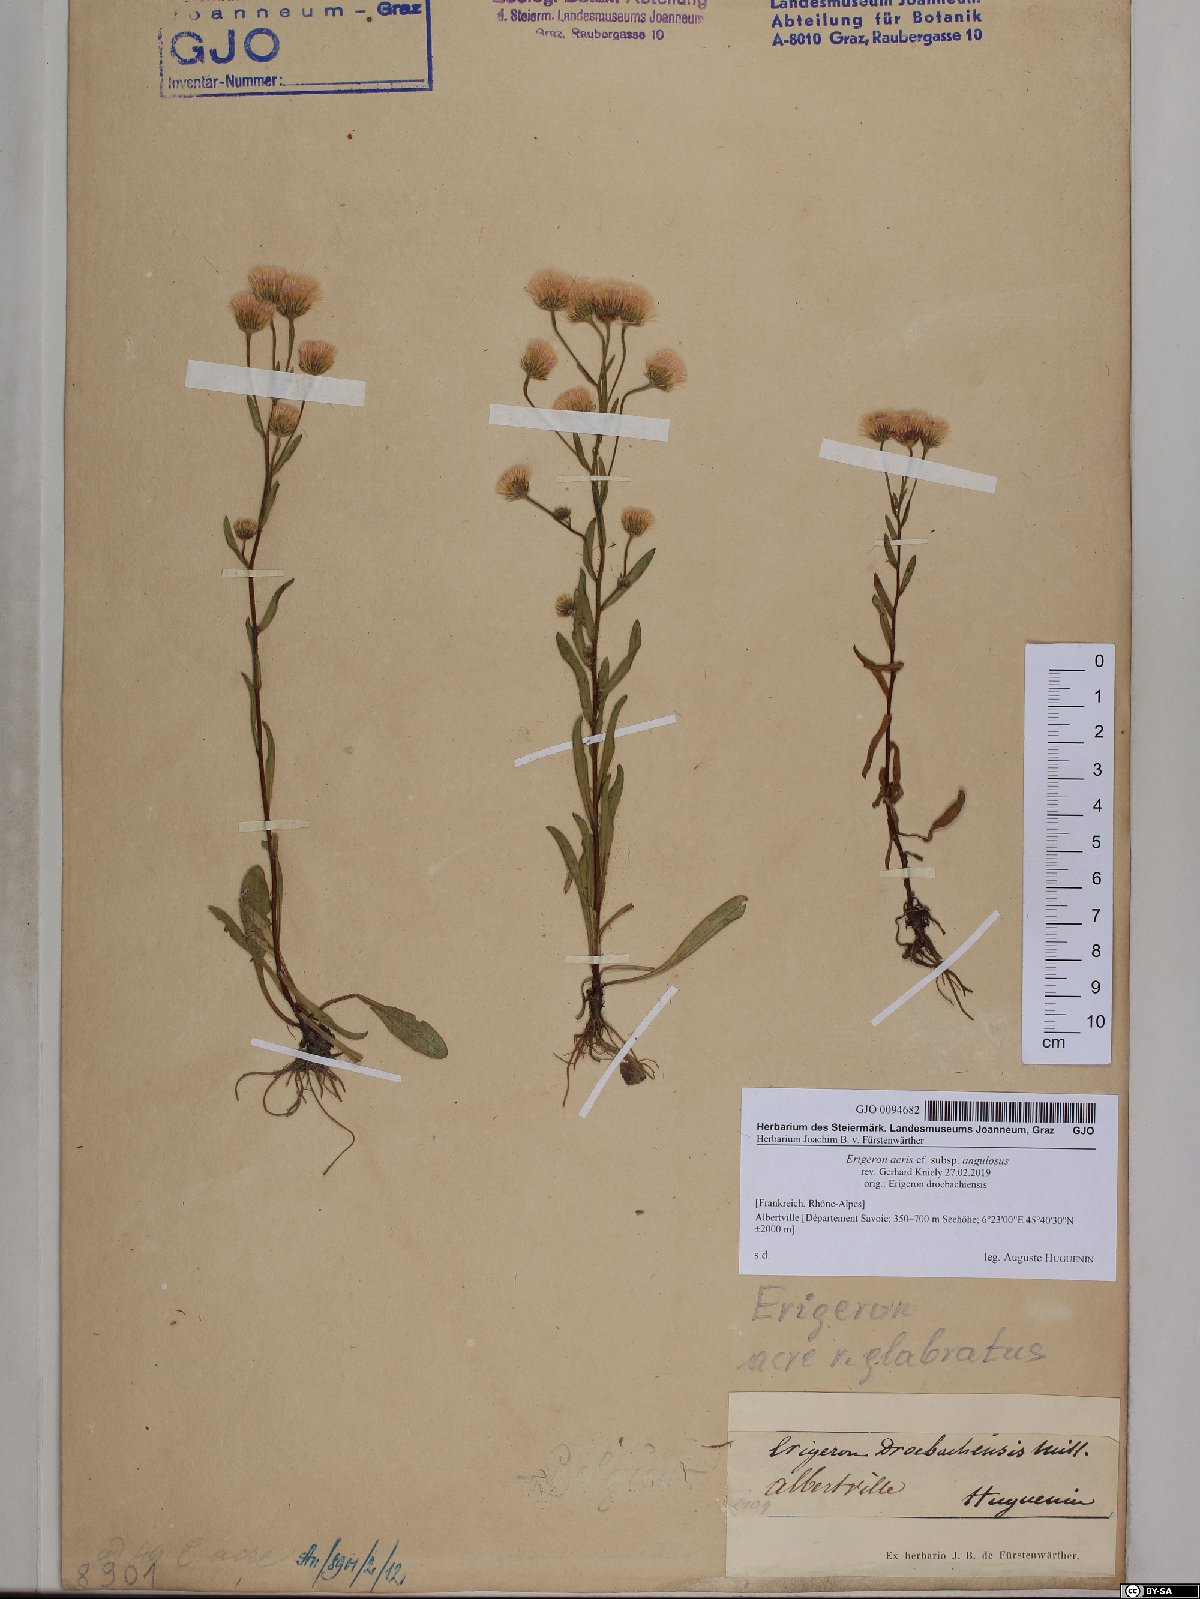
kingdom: Plantae
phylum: Tracheophyta
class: Magnoliopsida
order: Asterales
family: Asteraceae
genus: Erigeron
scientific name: Erigeron angulosus
